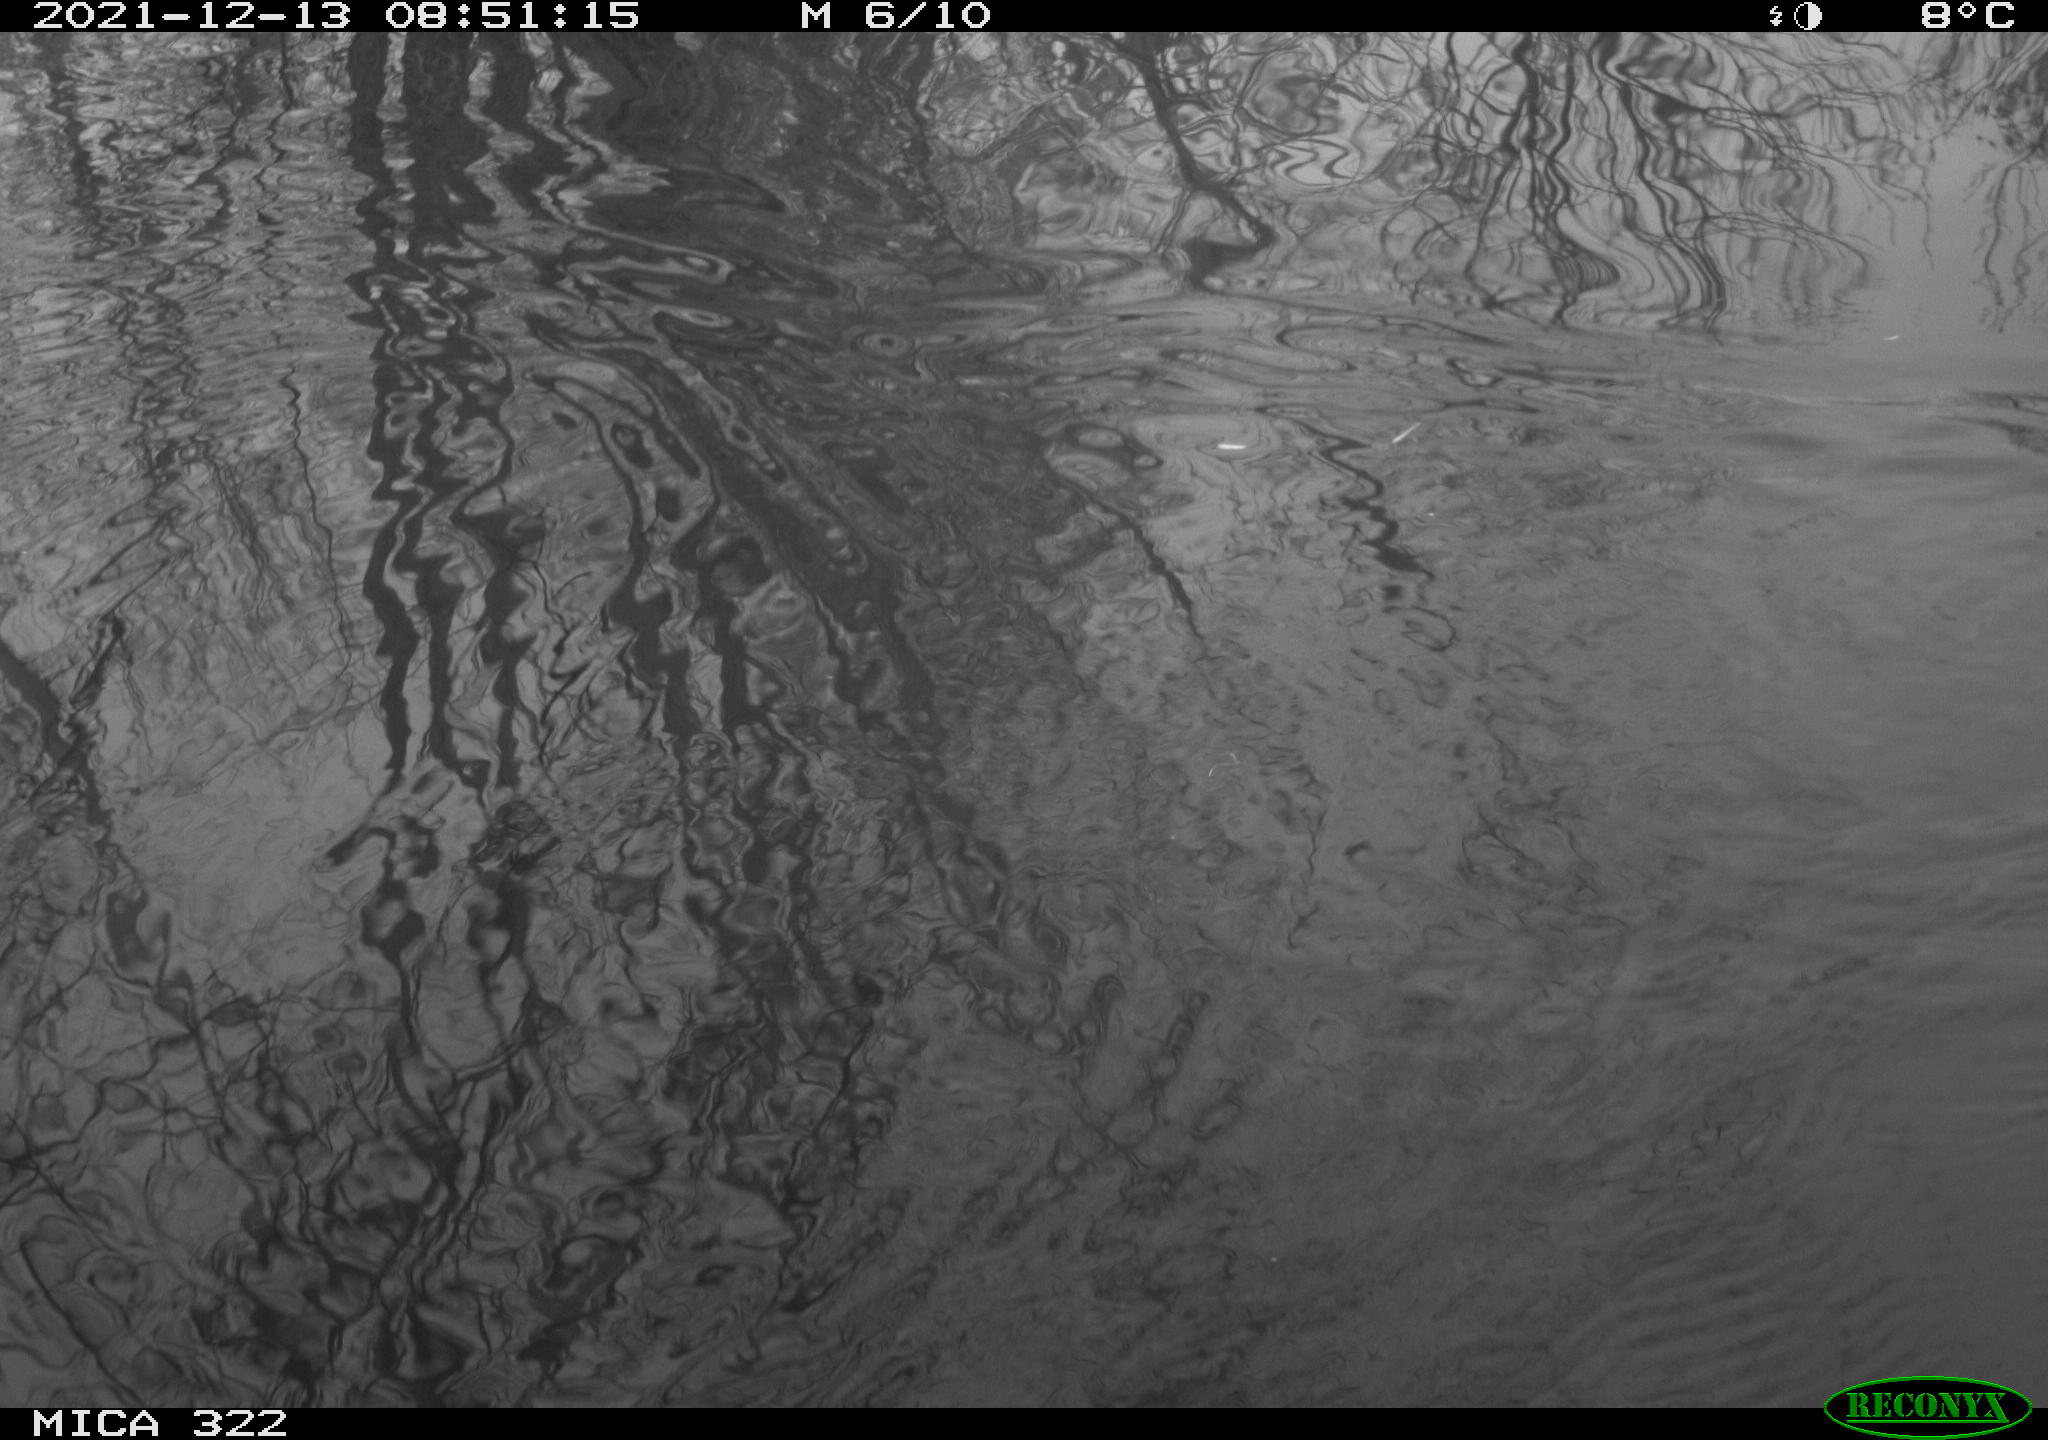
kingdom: Animalia
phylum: Chordata
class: Aves
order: Gruiformes
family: Rallidae
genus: Gallinula
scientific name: Gallinula chloropus
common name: Common moorhen
